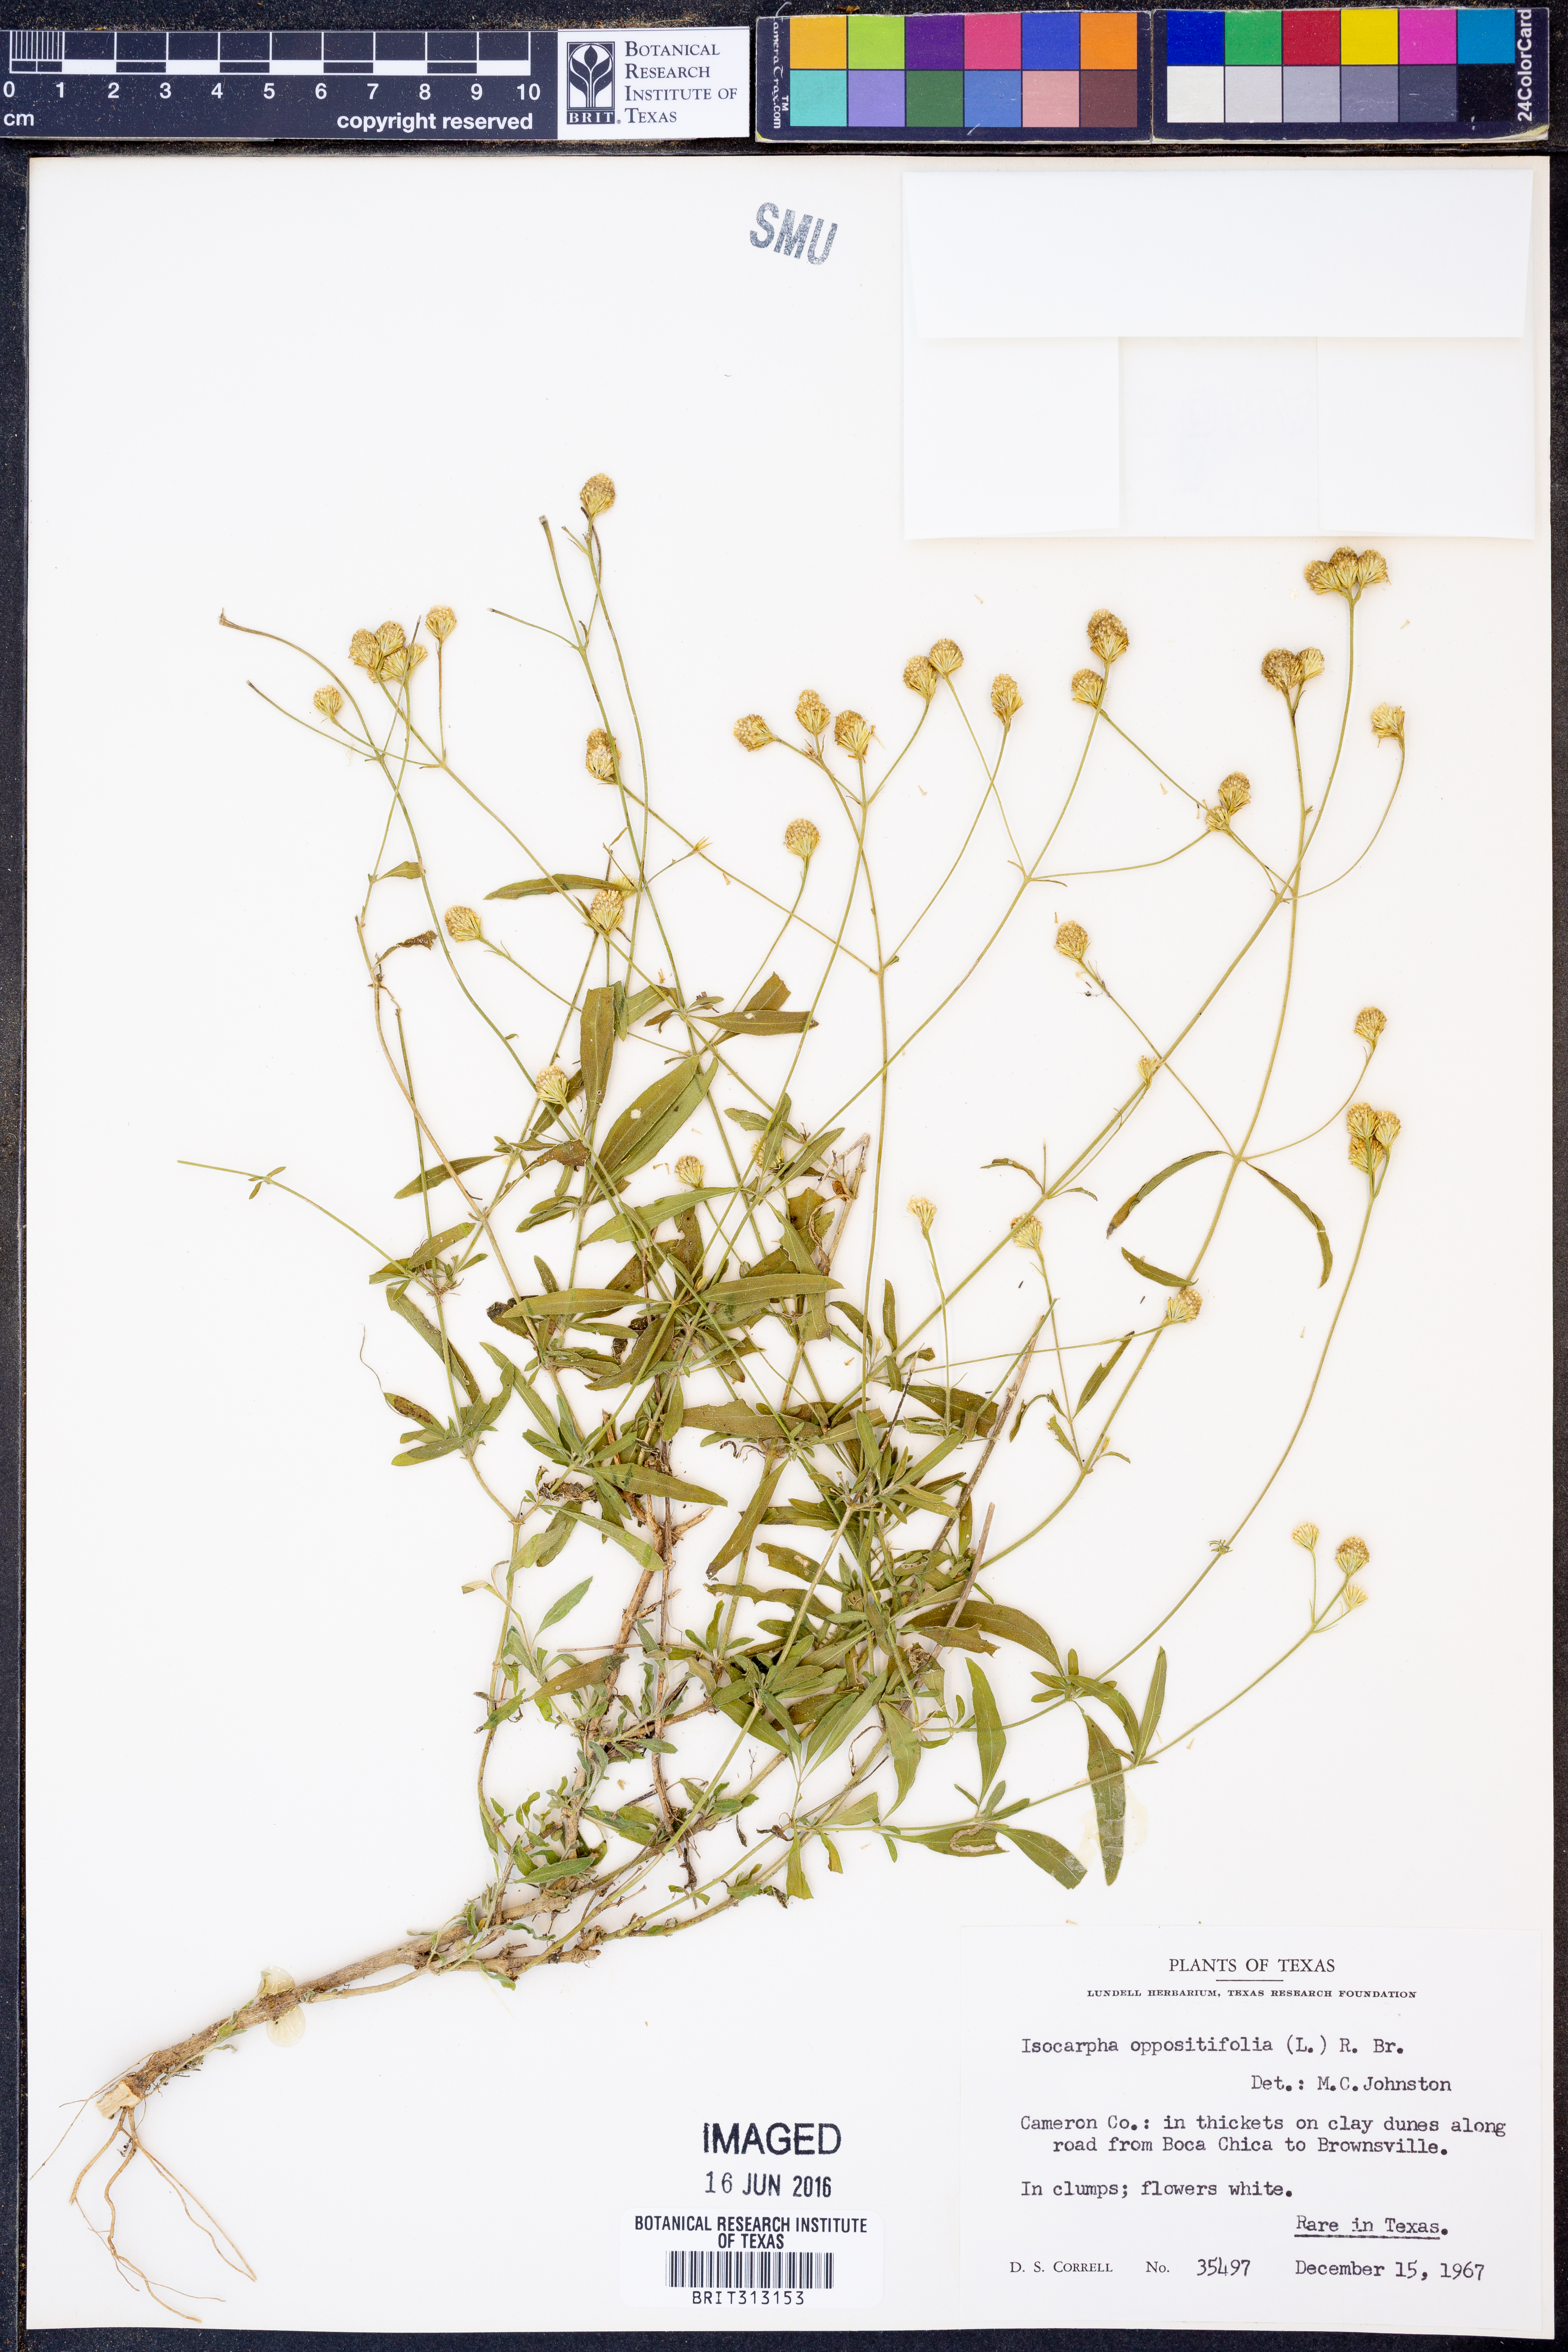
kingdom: Plantae
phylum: Tracheophyta
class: Magnoliopsida
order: Asterales
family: Asteraceae
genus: Isocarpha
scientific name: Isocarpha oppositifolia
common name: Rio grande pearlhead
